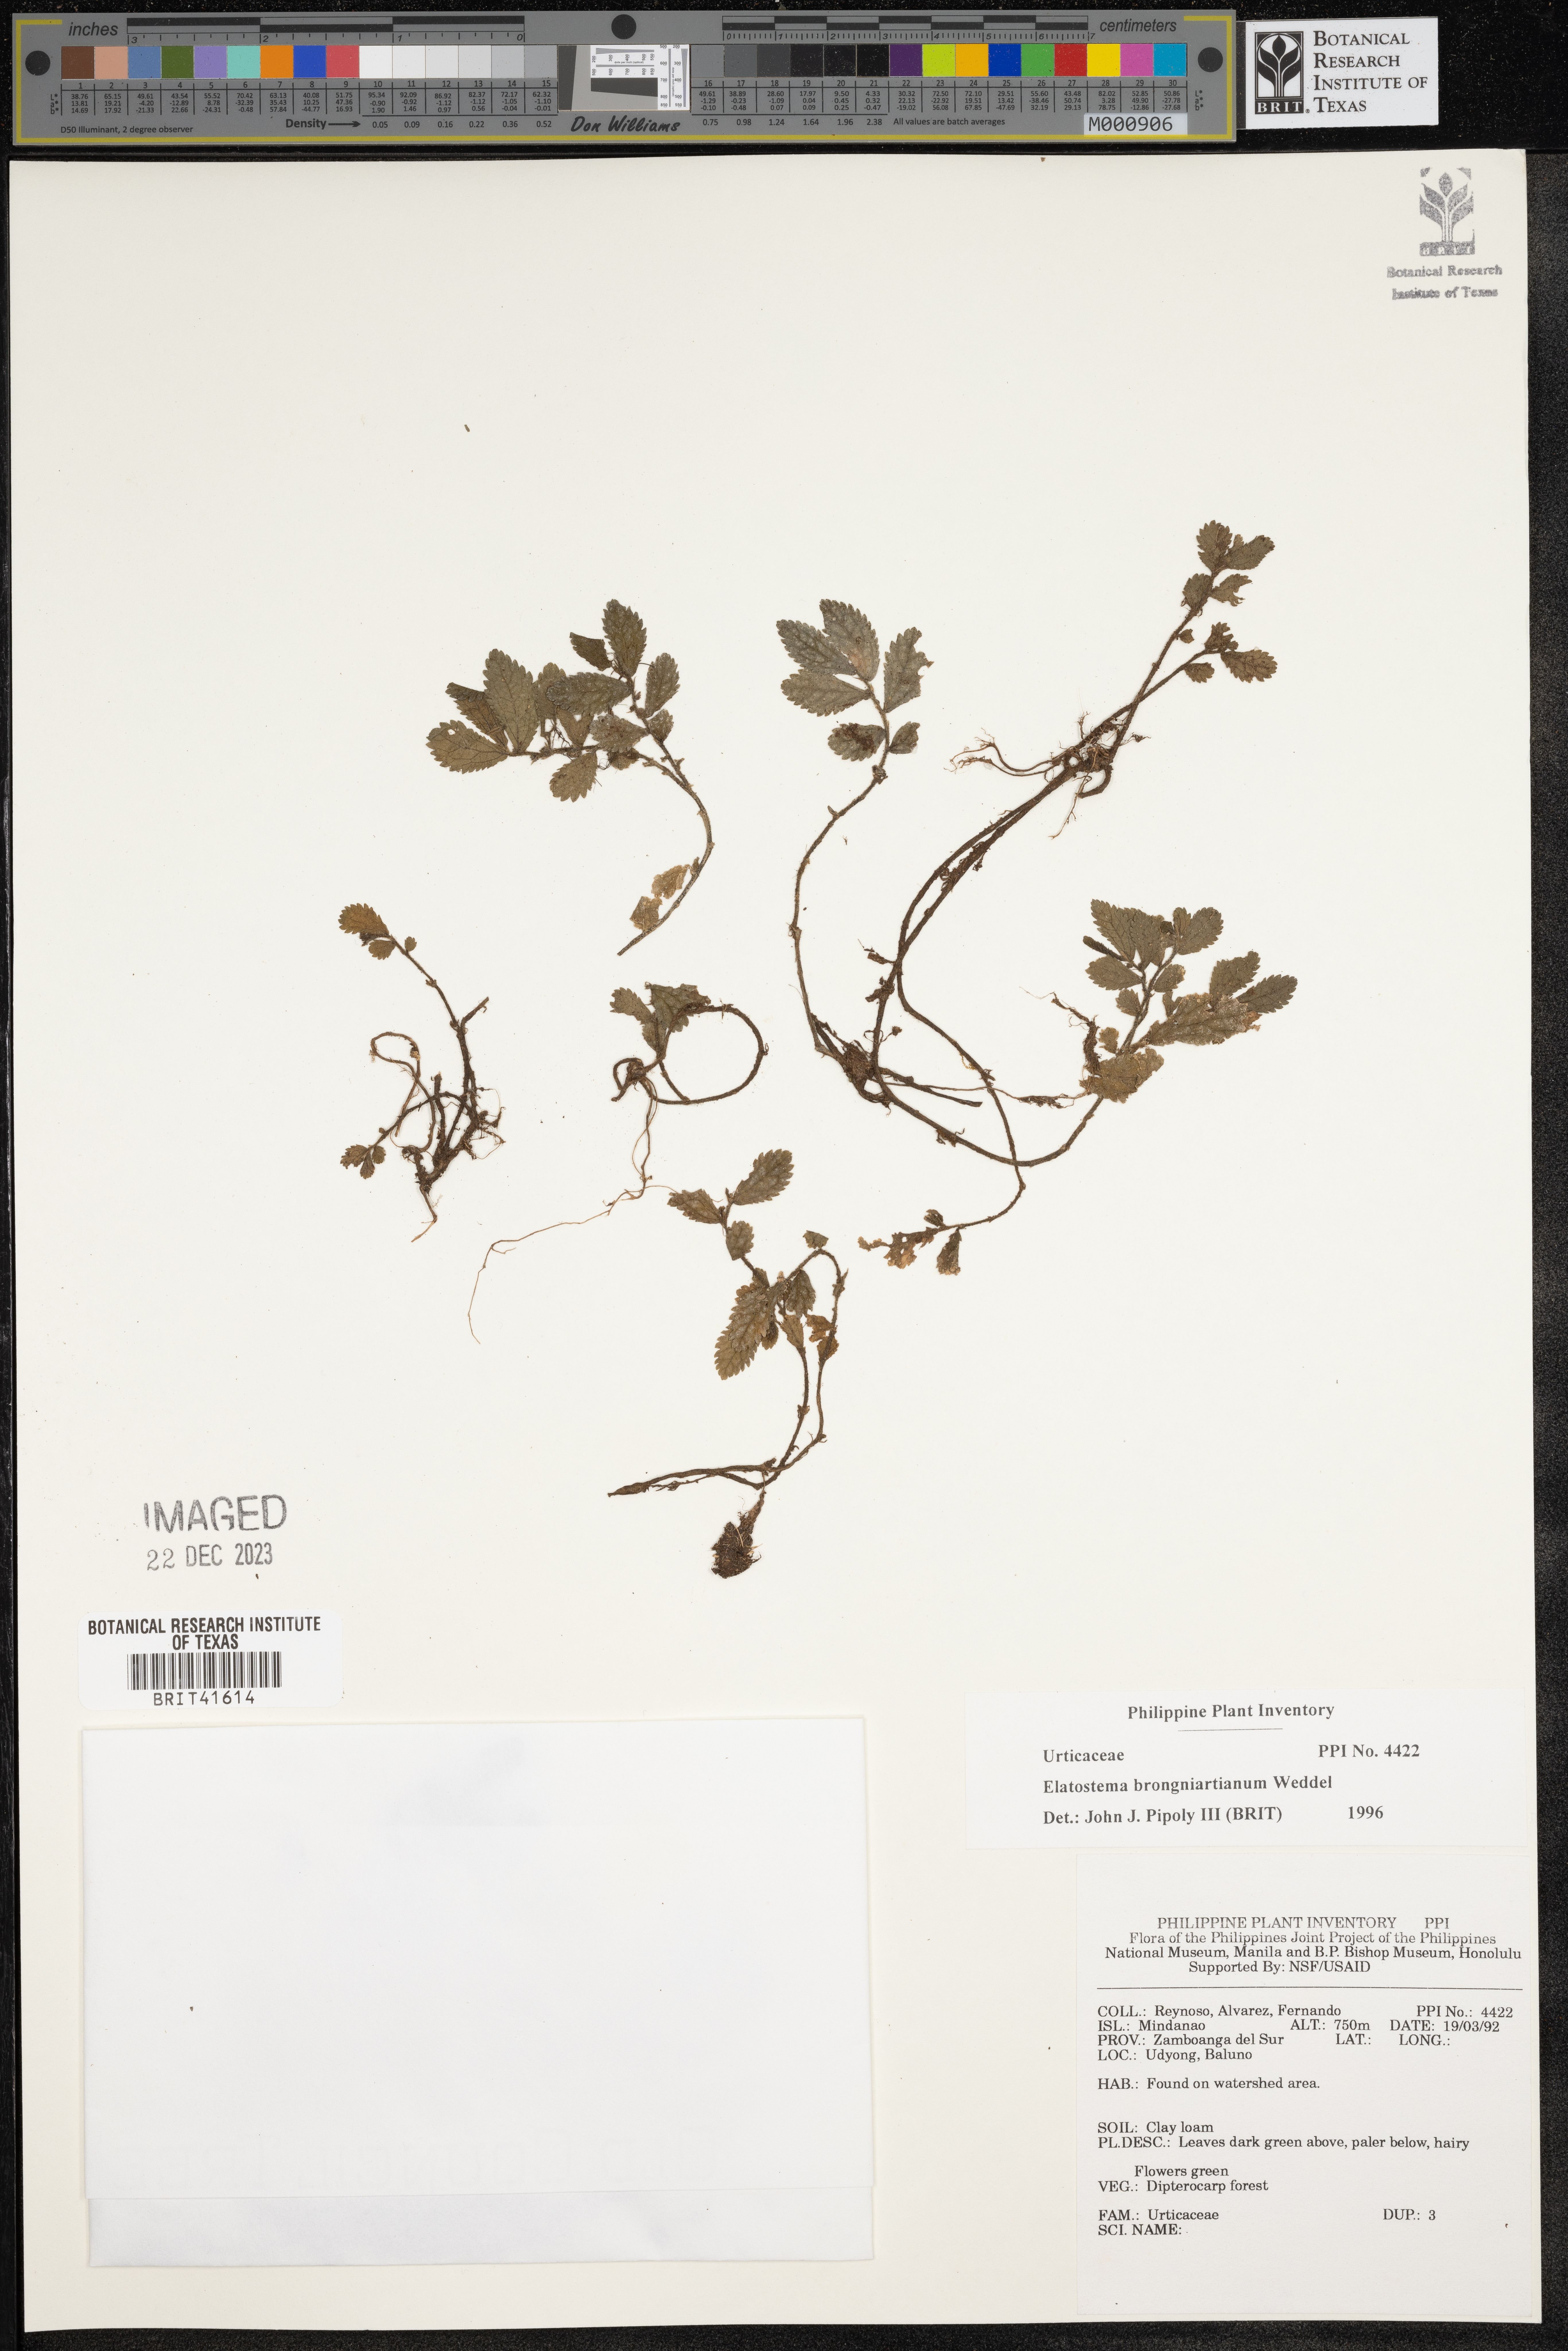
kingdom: Plantae
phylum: Tracheophyta
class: Magnoliopsida
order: Rosales
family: Urticaceae
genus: Elatostema
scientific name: Elatostema brongniartianum
